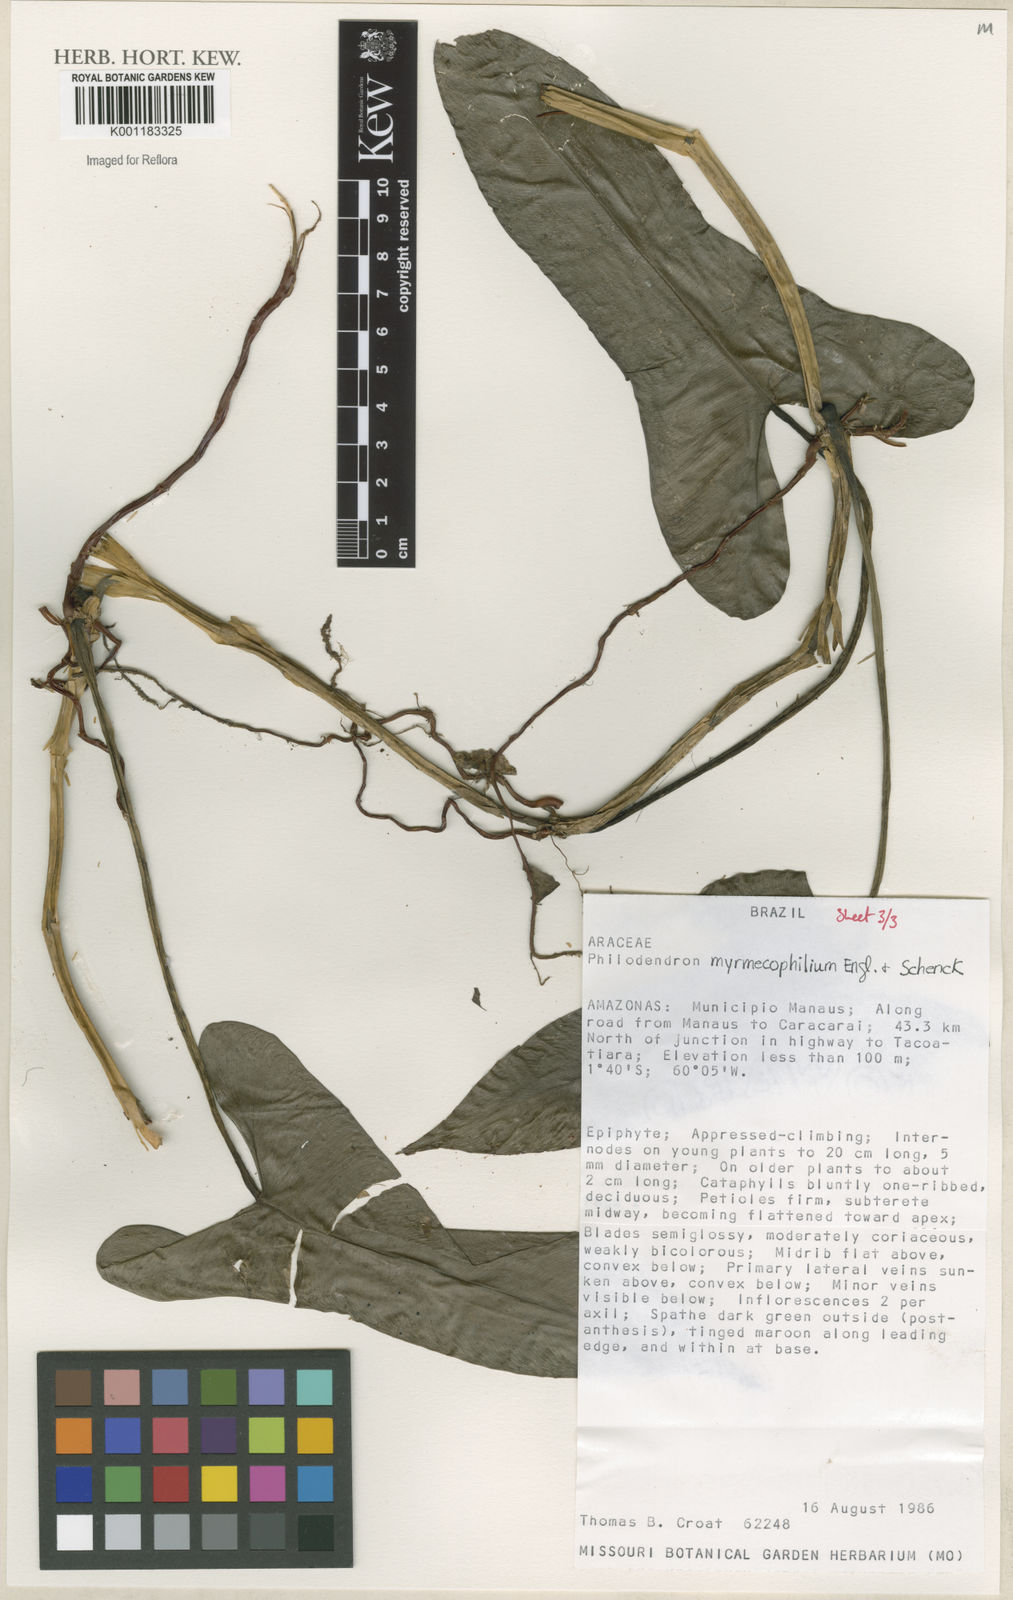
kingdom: Plantae
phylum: Tracheophyta
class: Liliopsida
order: Alismatales
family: Araceae
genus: Philodendron
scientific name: Philodendron myrmecophilum
